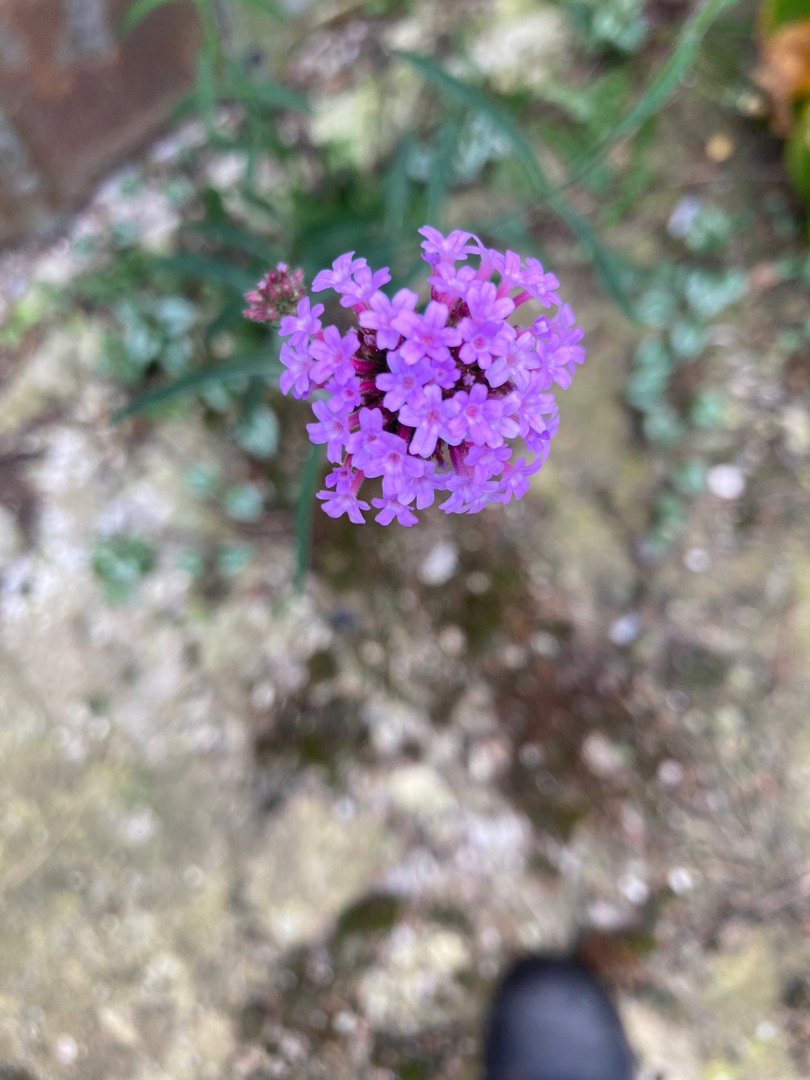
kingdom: Plantae
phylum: Tracheophyta
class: Magnoliopsida
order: Lamiales
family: Verbenaceae
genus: Verbena
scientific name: Verbena bonariensis
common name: Kæmpe-jernurt
